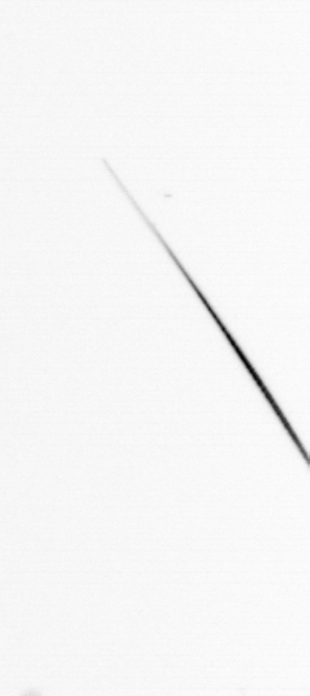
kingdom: Chromista
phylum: Ochrophyta
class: Bacillariophyceae
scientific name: Bacillariophyceae
